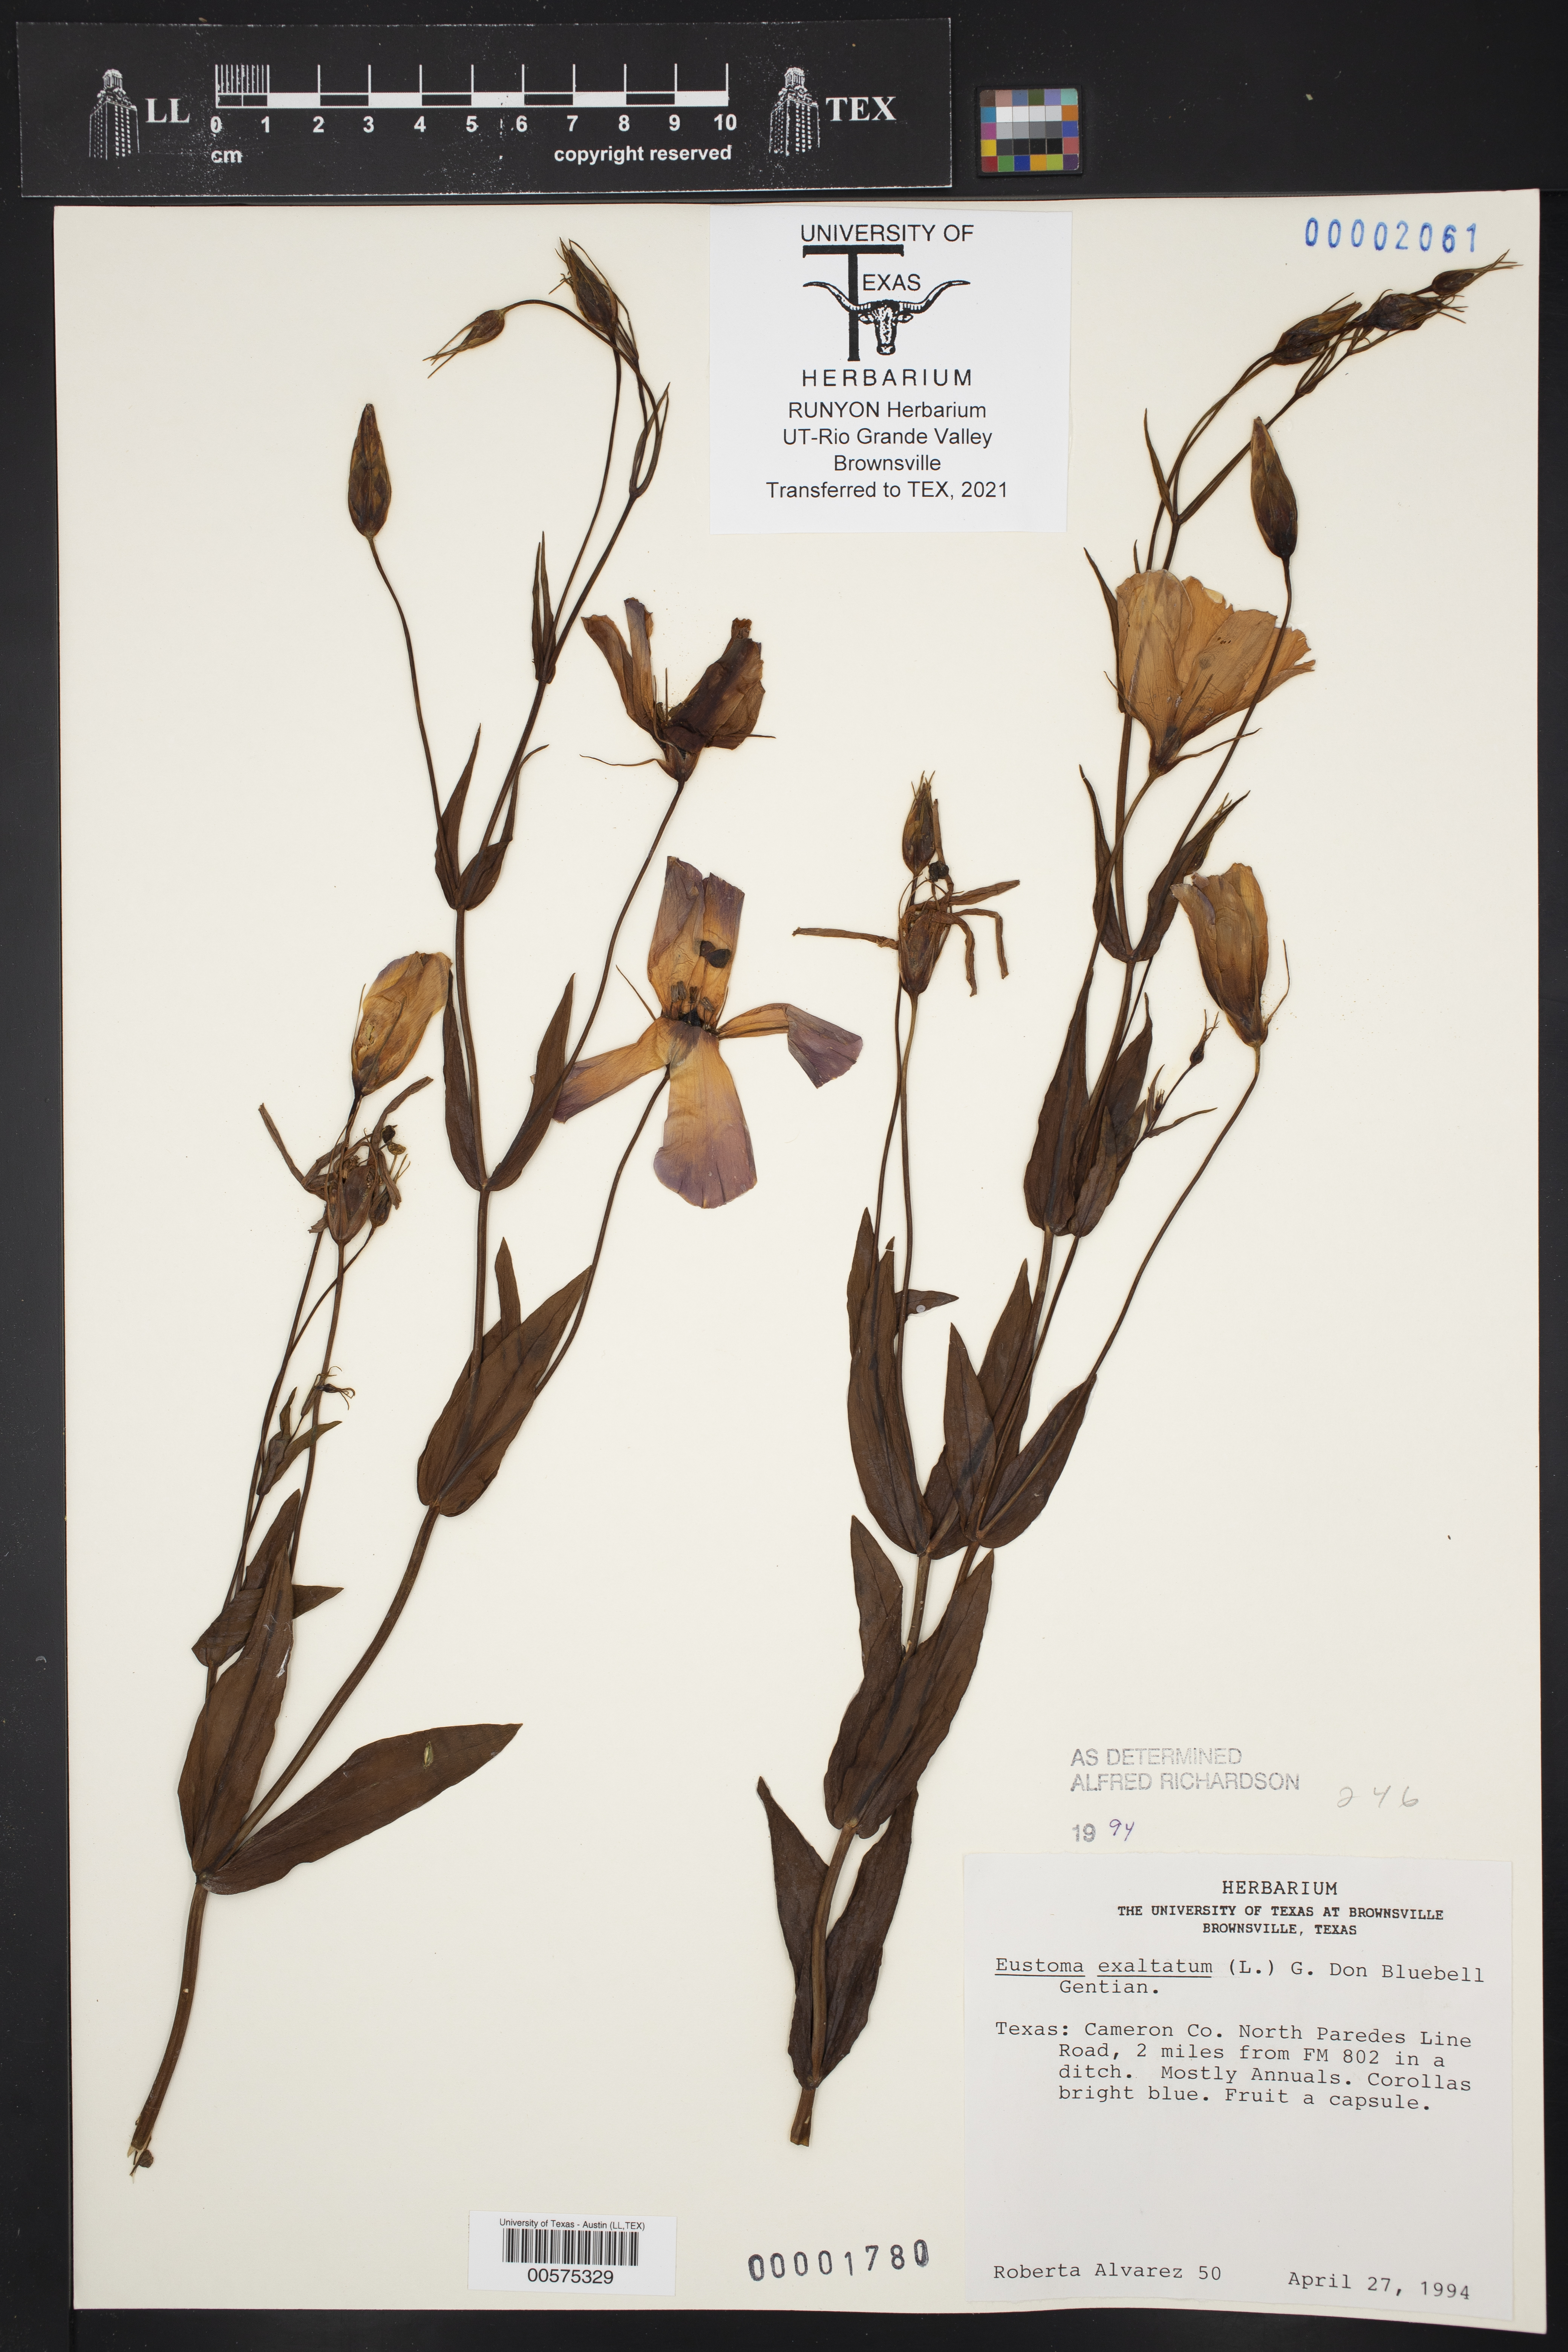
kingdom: Plantae
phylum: Tracheophyta
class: Magnoliopsida
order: Gentianales
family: Gentianaceae
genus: Eustoma
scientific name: Eustoma exaltatum
